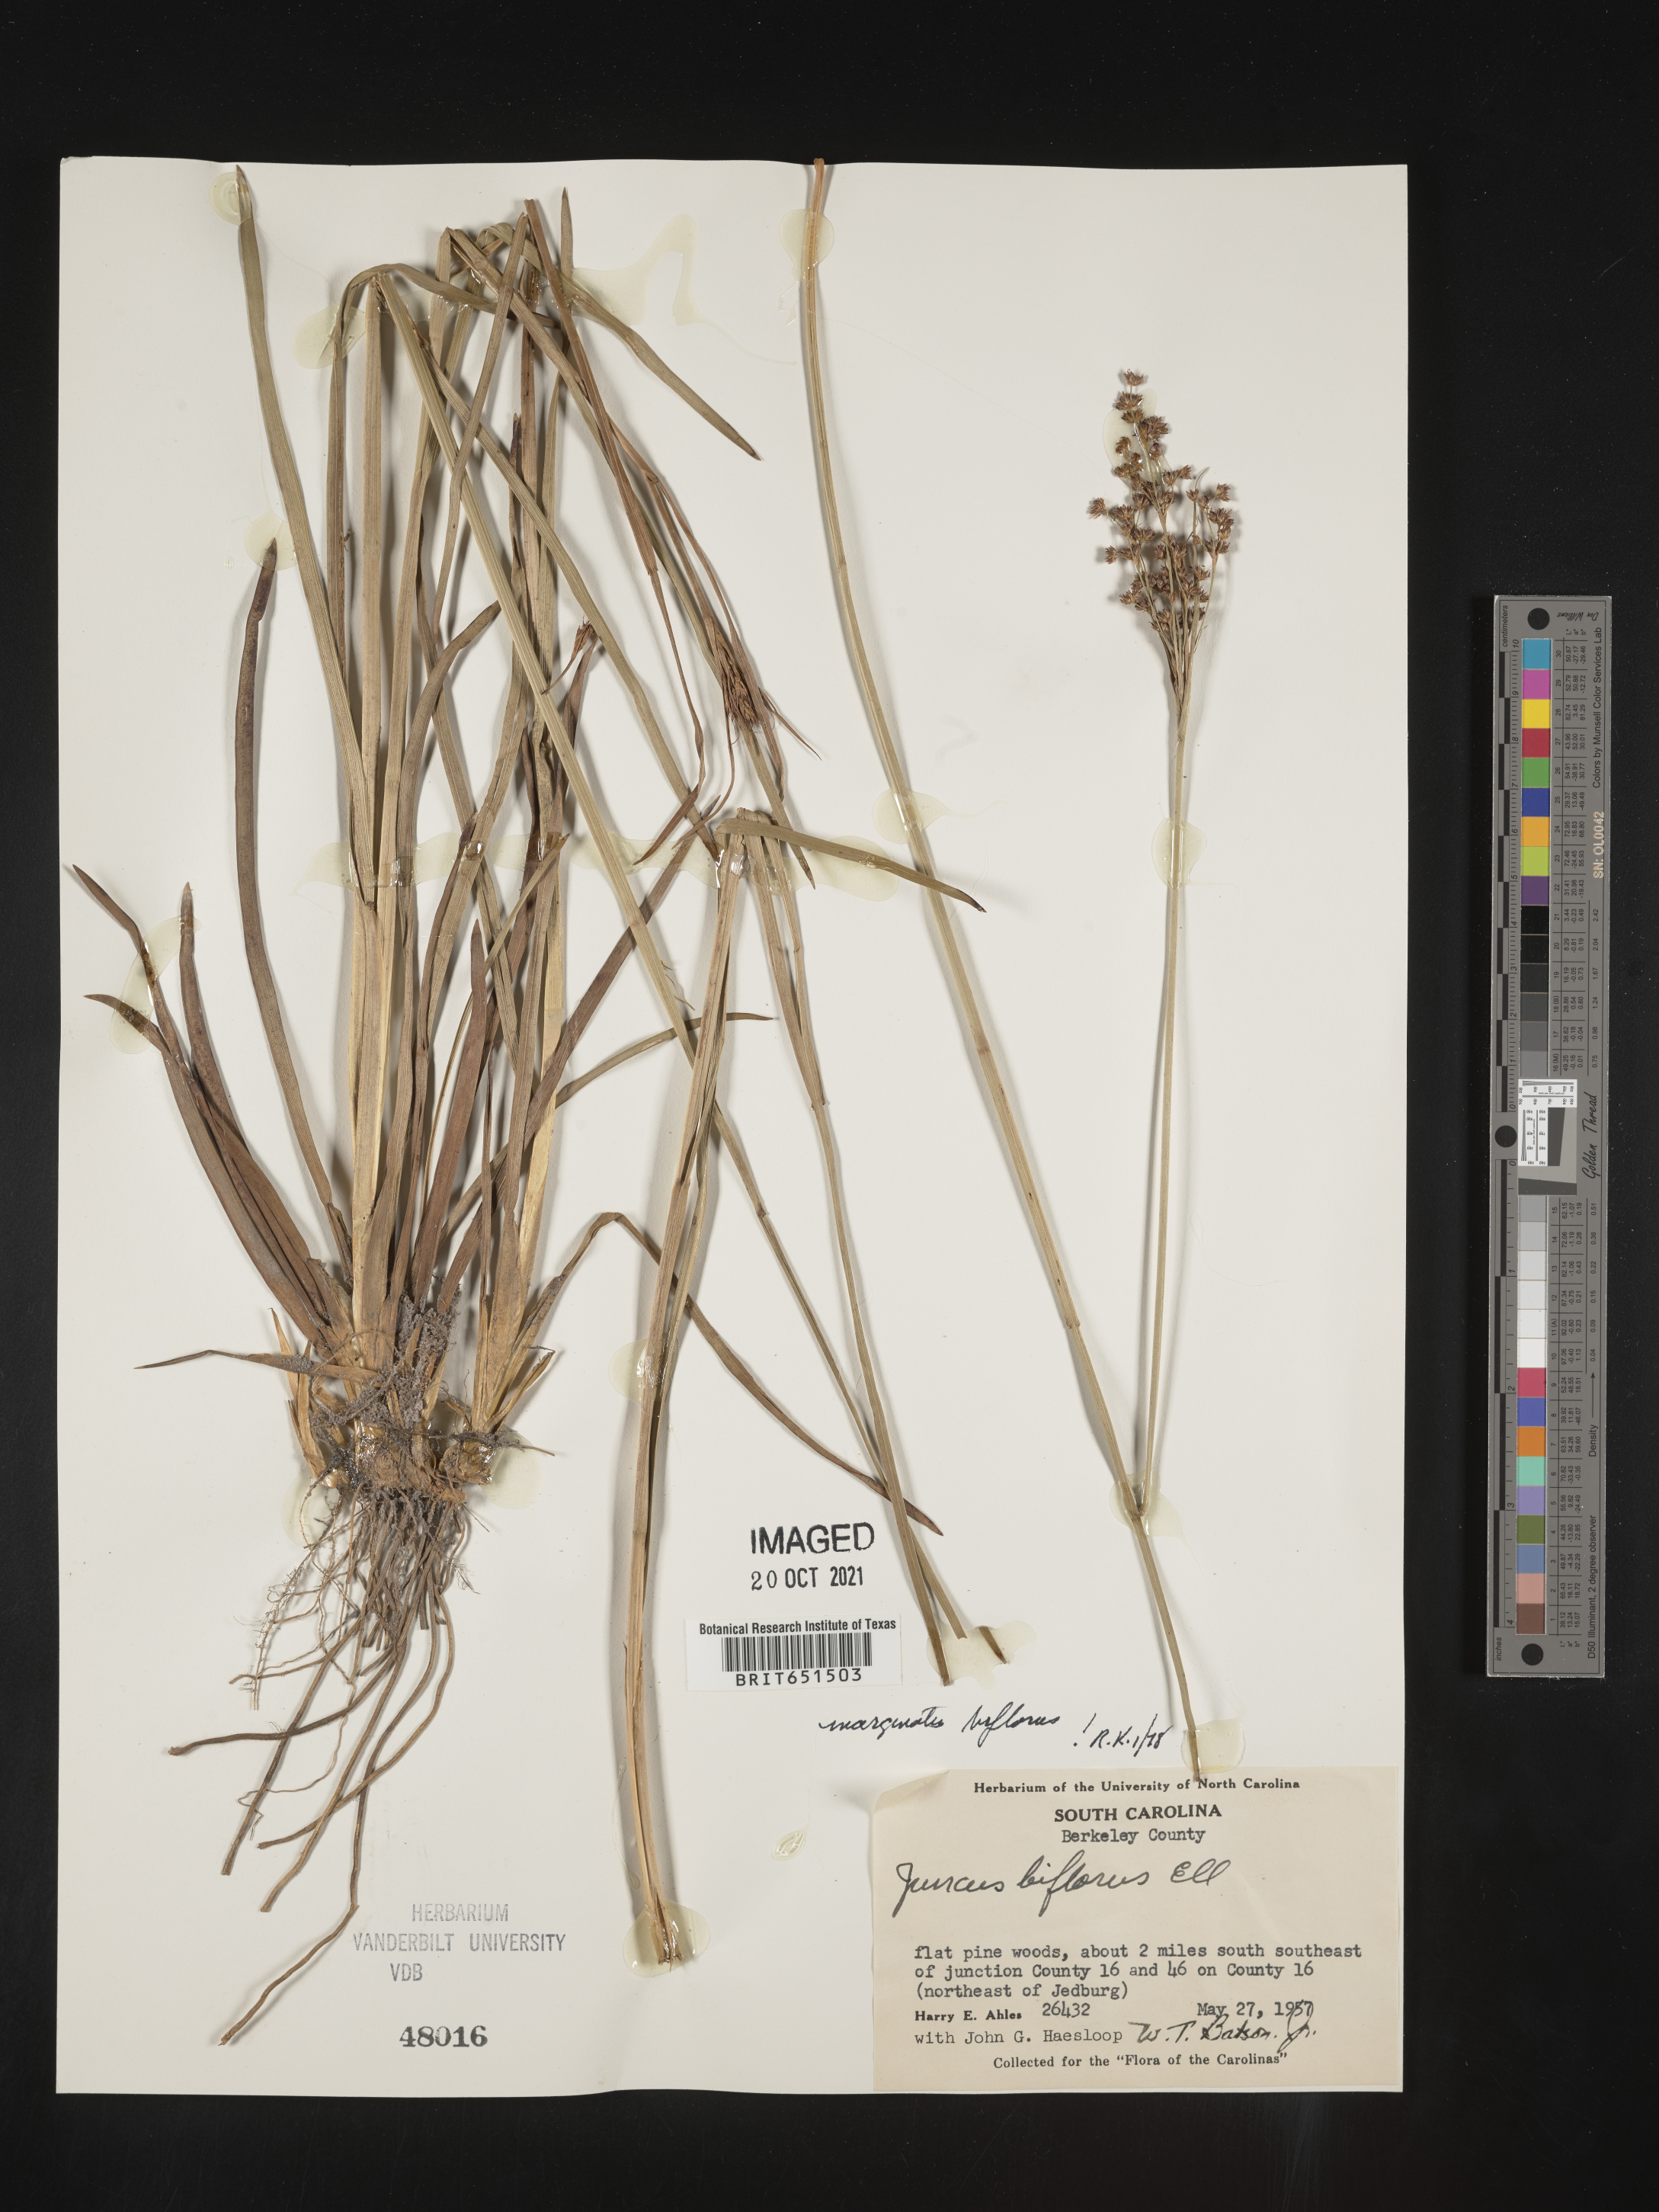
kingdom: Plantae
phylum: Tracheophyta
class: Liliopsida
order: Poales
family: Juncaceae
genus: Juncus
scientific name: Juncus biflorus
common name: Two-flowered rush
